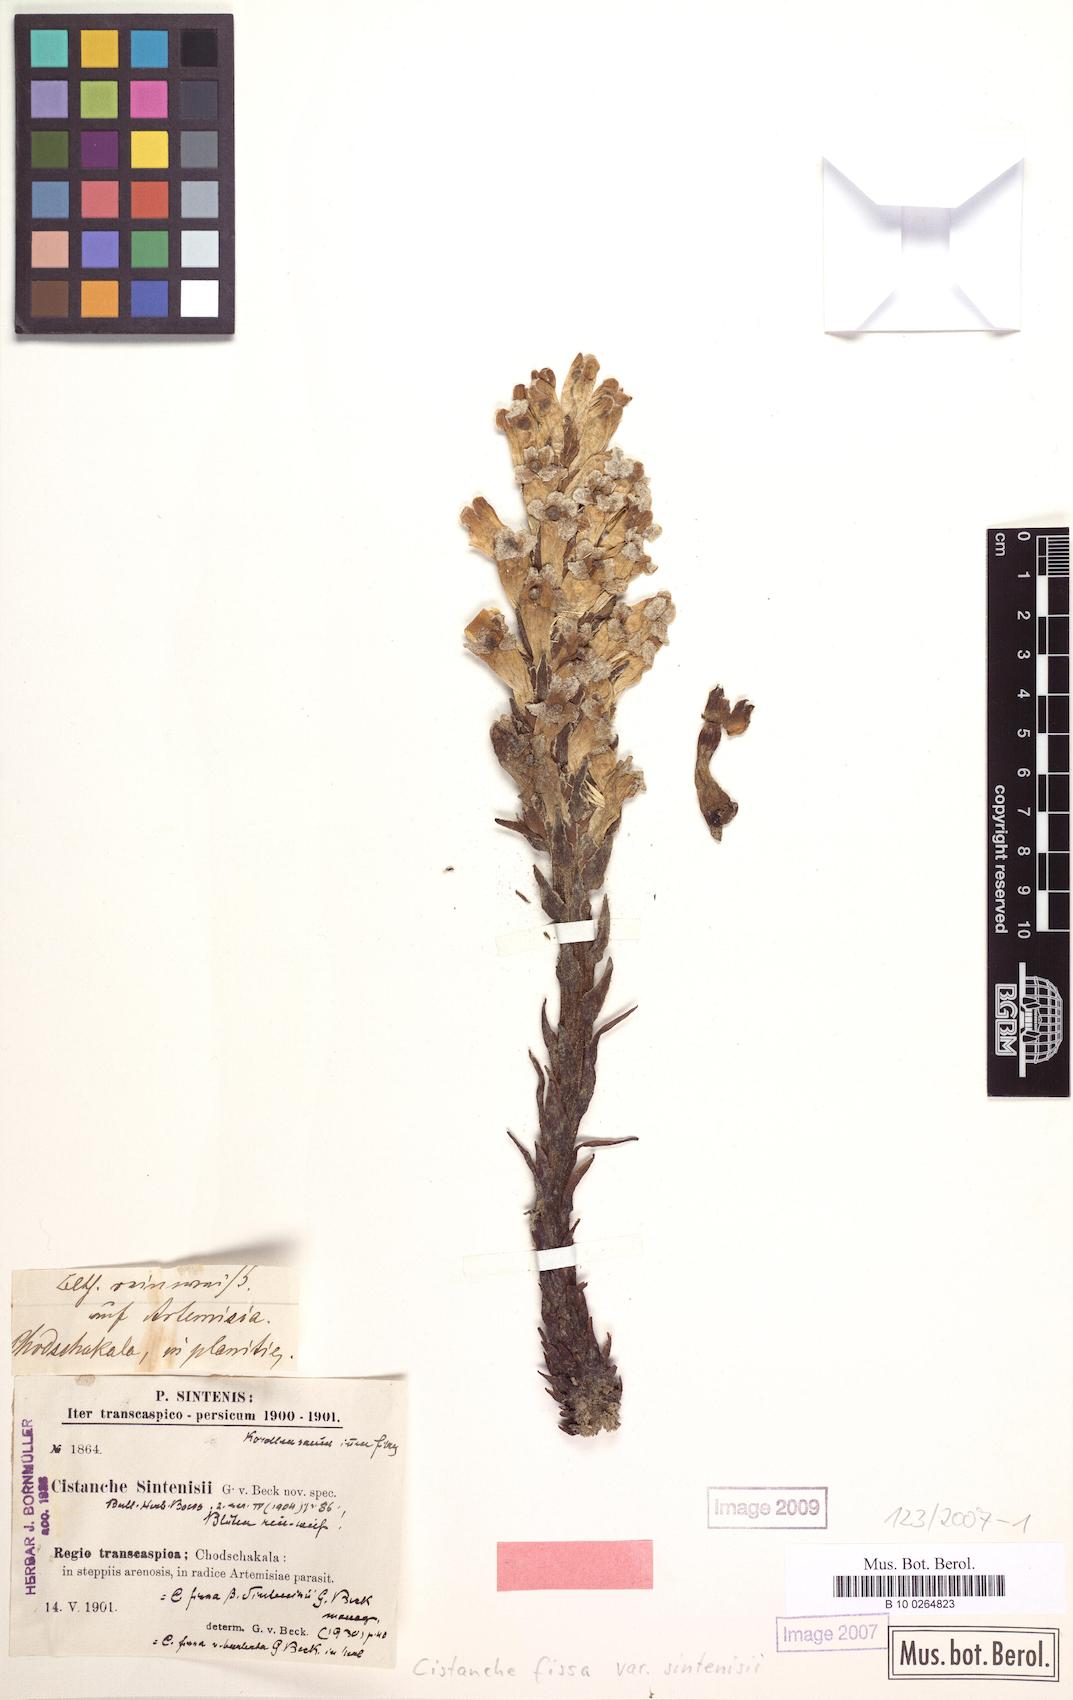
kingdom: Plantae
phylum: Tracheophyta
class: Magnoliopsida
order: Lamiales
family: Orobanchaceae
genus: Cistanche
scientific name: Cistanche fissa
